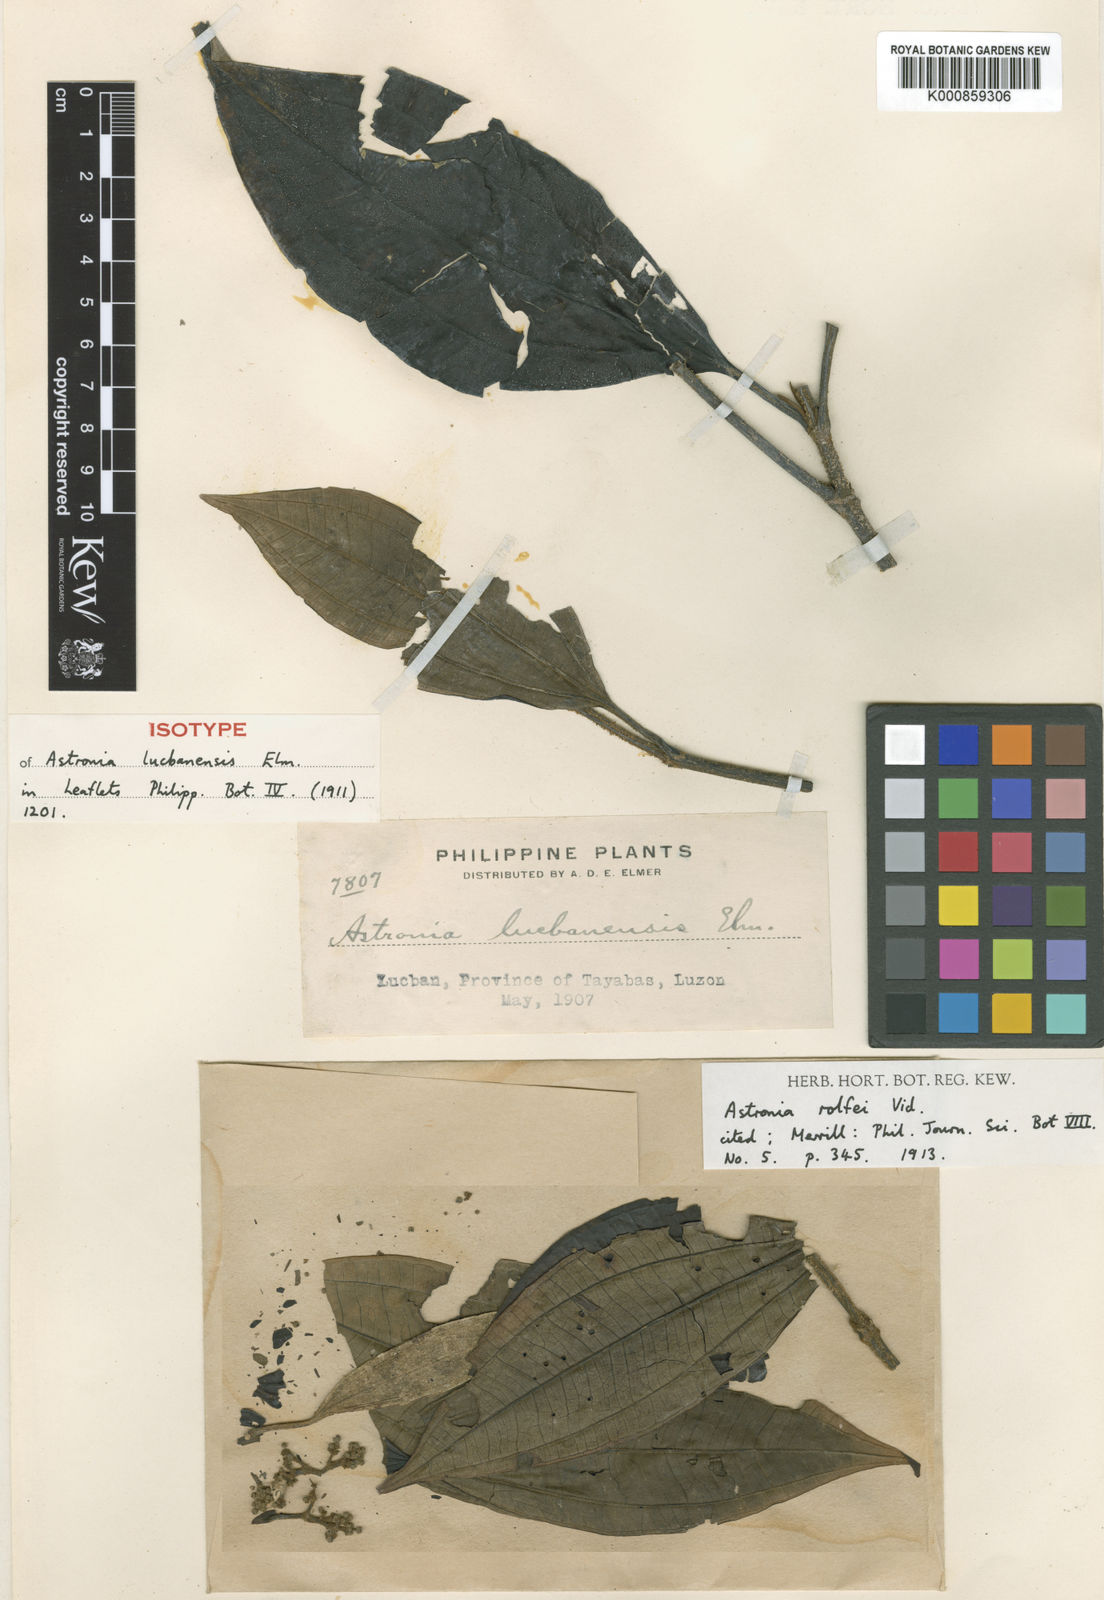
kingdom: Plantae
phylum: Tracheophyta
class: Magnoliopsida
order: Myrtales
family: Melastomataceae
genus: Astronia
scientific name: Astronia rolfei
